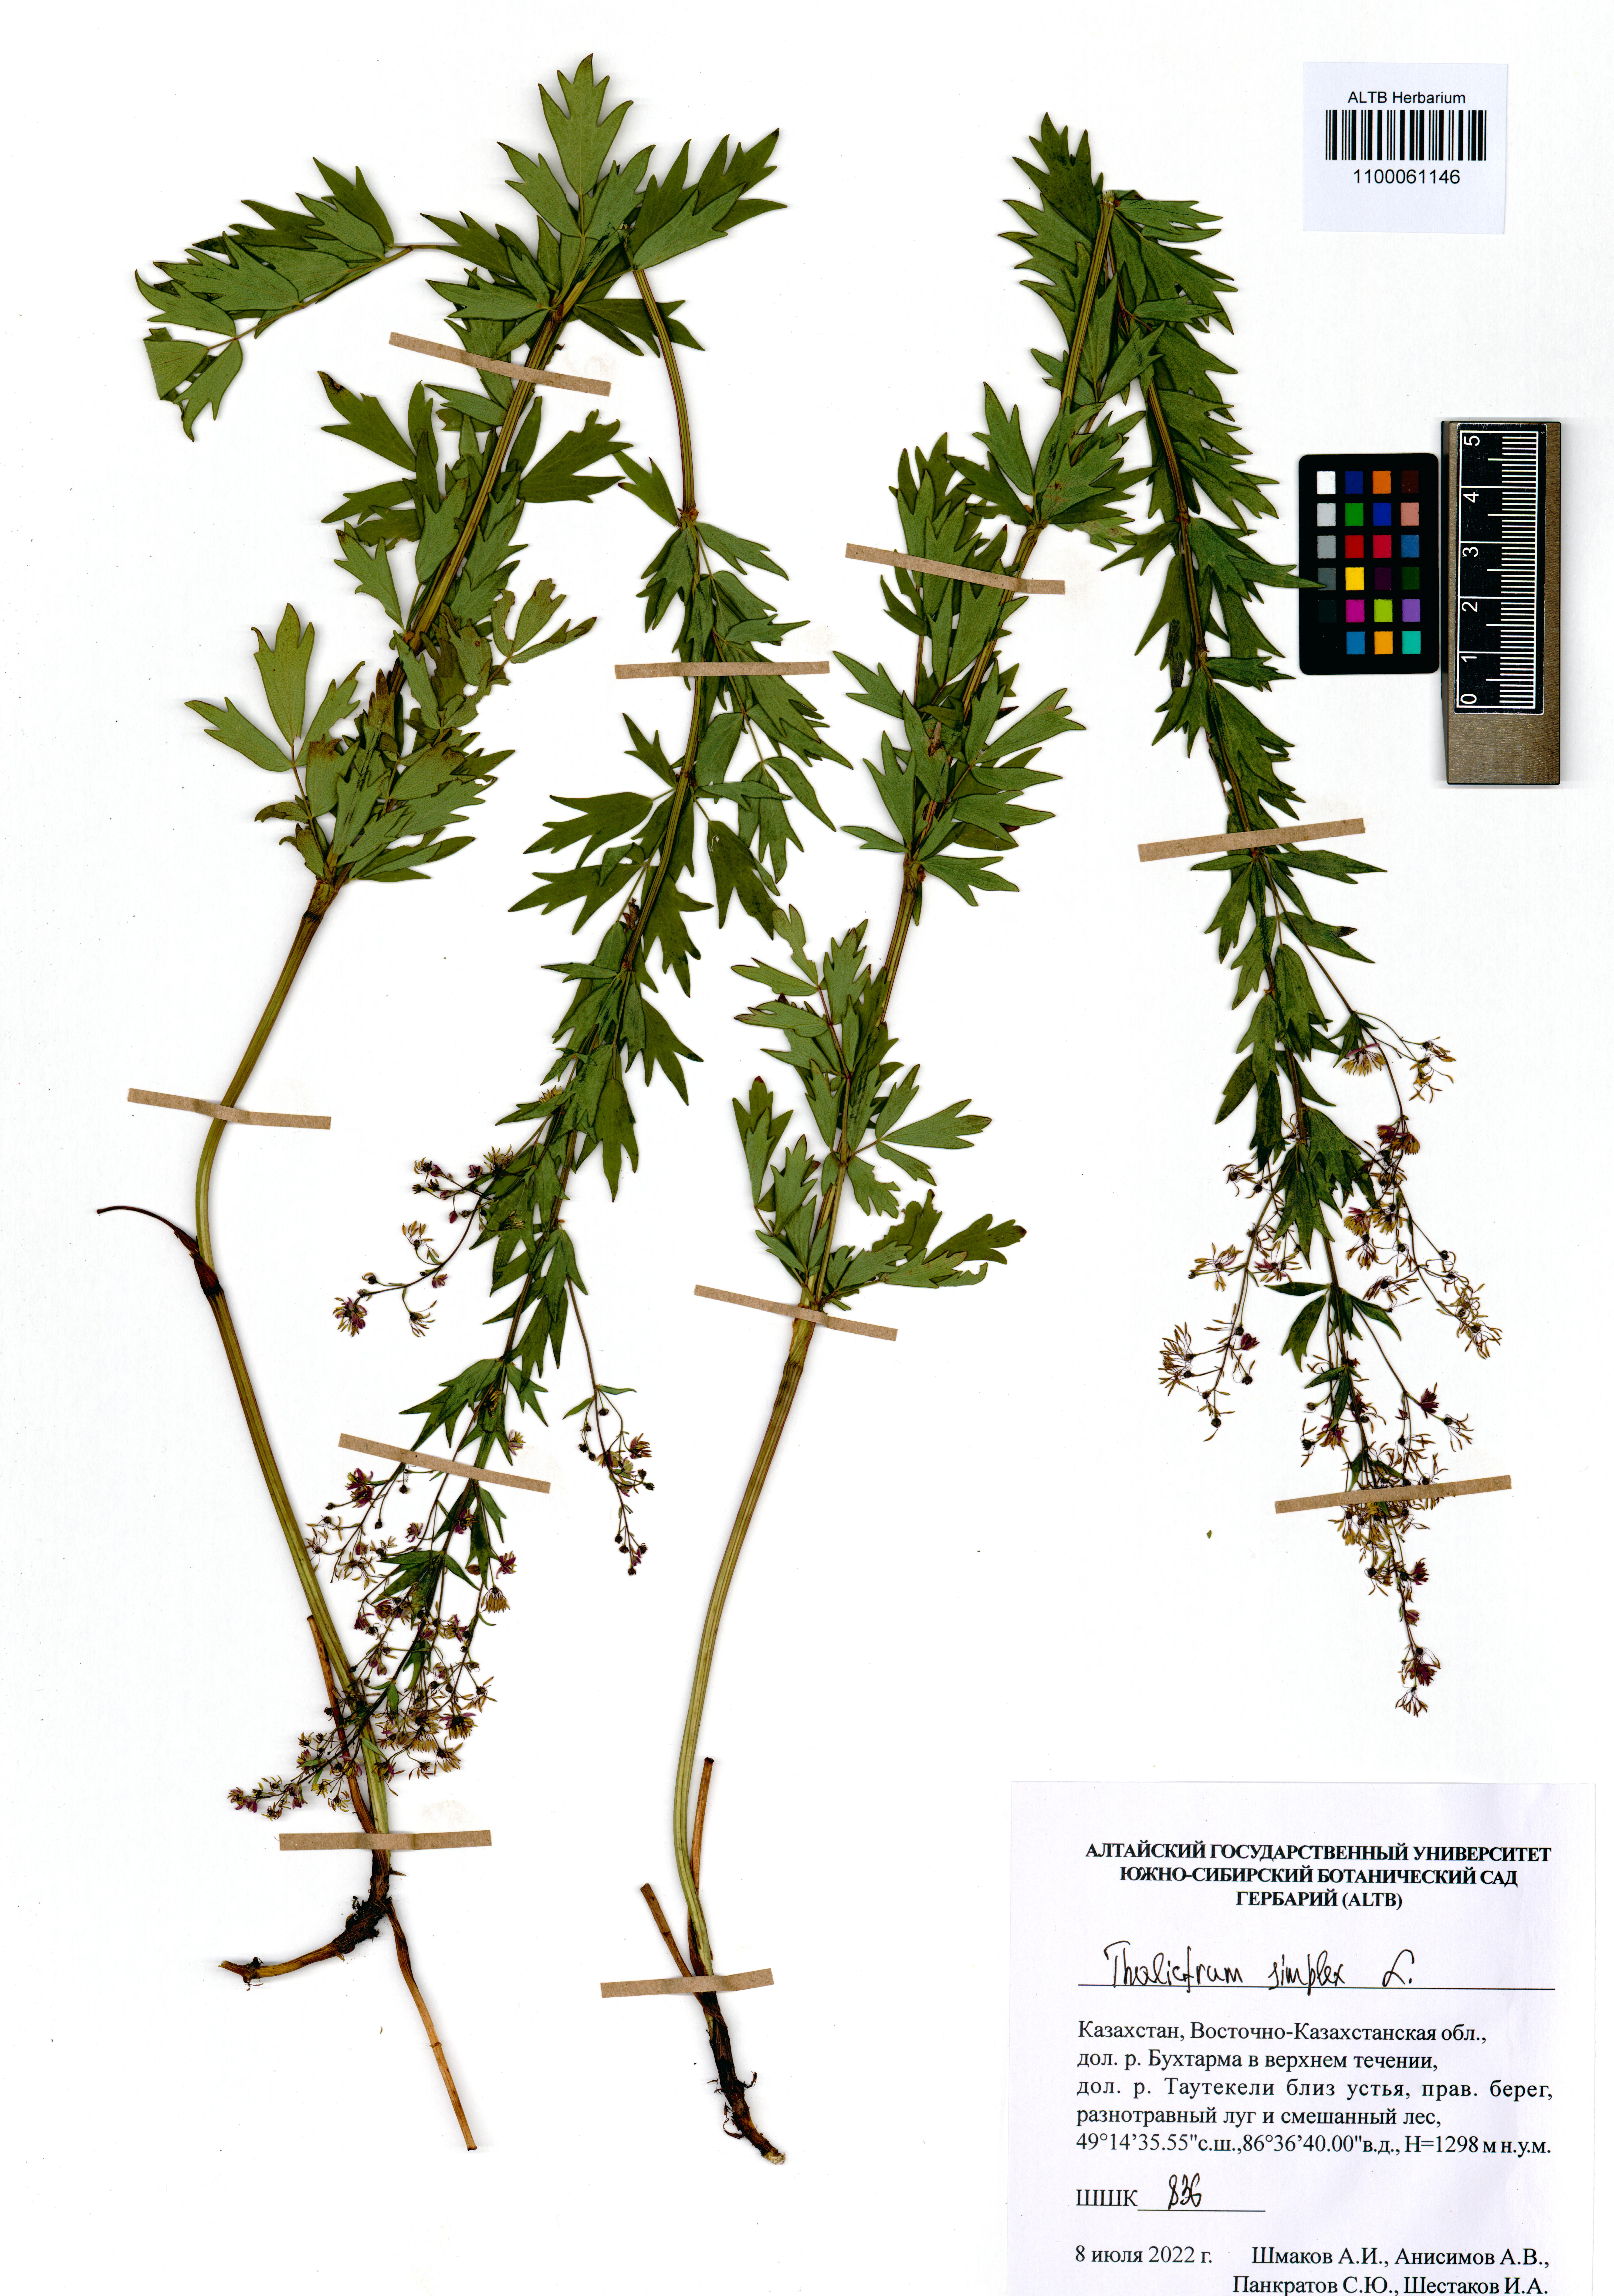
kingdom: Plantae
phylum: Tracheophyta
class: Magnoliopsida
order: Ranunculales
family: Ranunculaceae
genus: Thalictrum
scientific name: Thalictrum simplex
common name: Small meadow-rue
